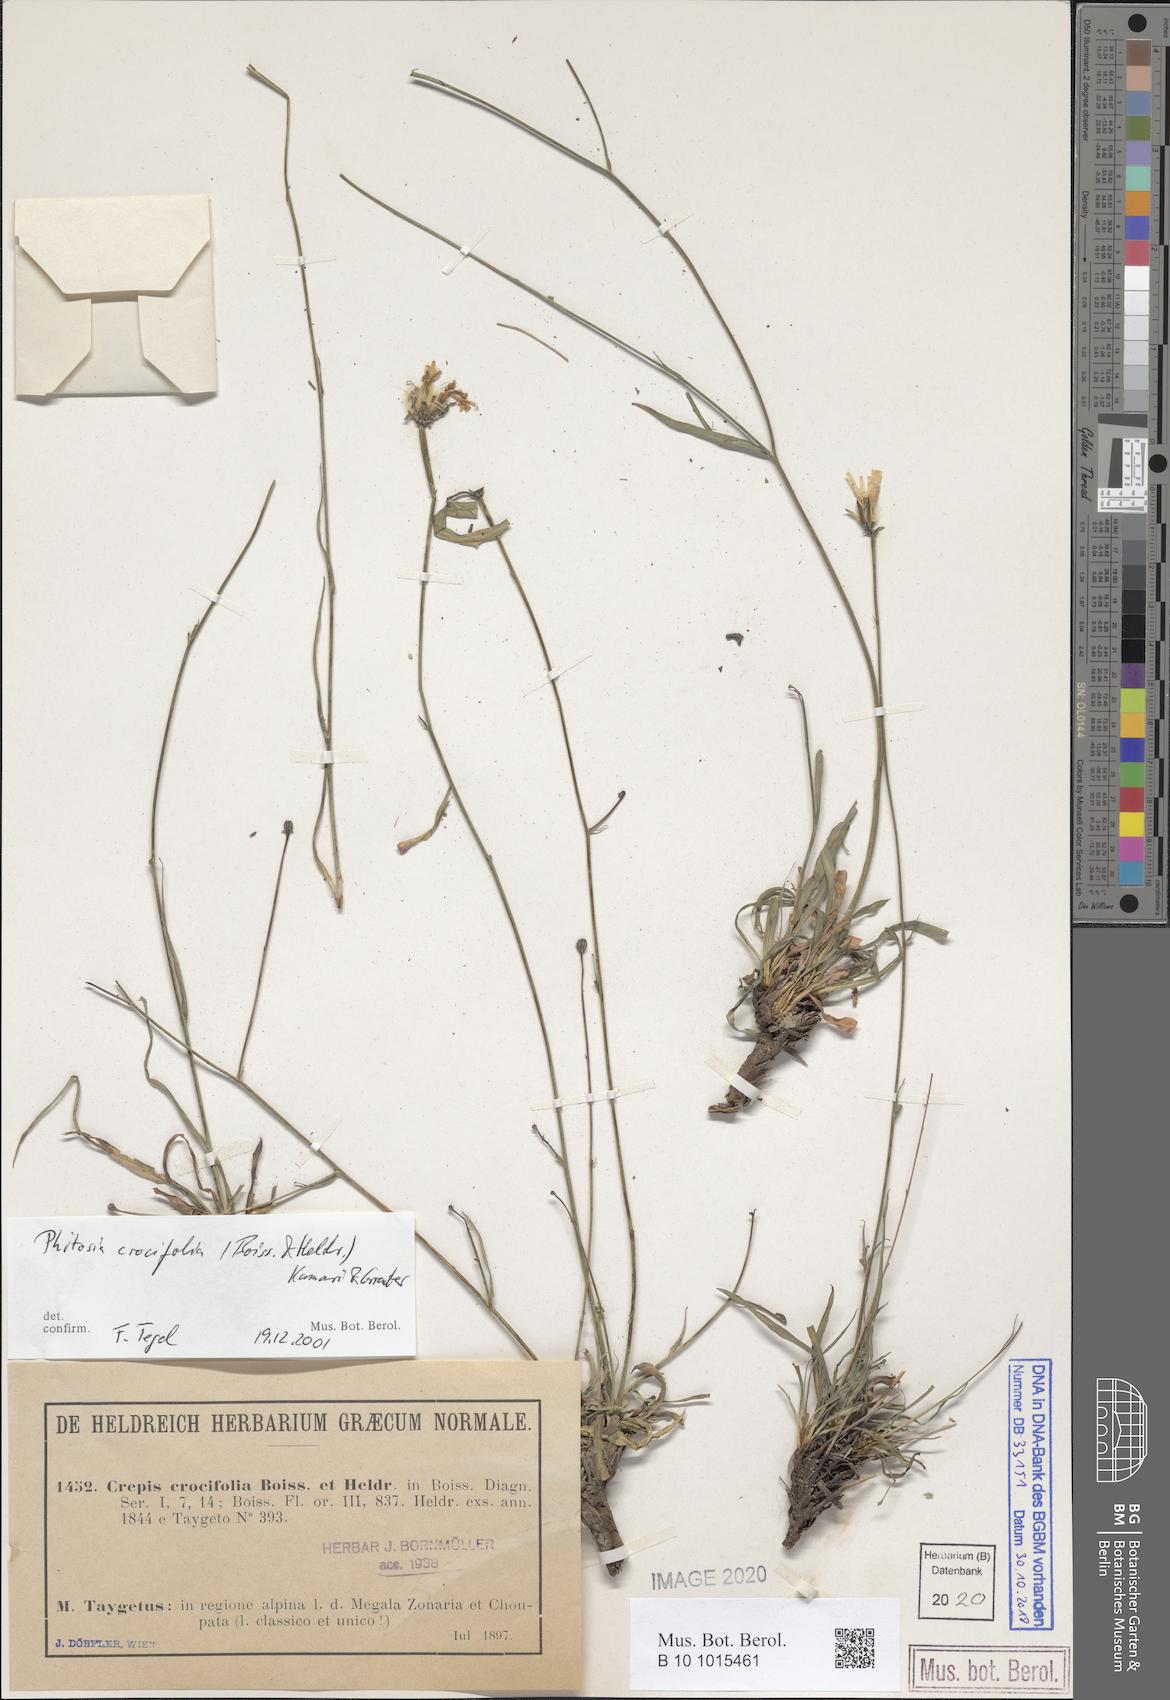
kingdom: Plantae
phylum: Tracheophyta
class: Magnoliopsida
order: Asterales
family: Asteraceae
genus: Phitosia
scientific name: Phitosia crocifolia
